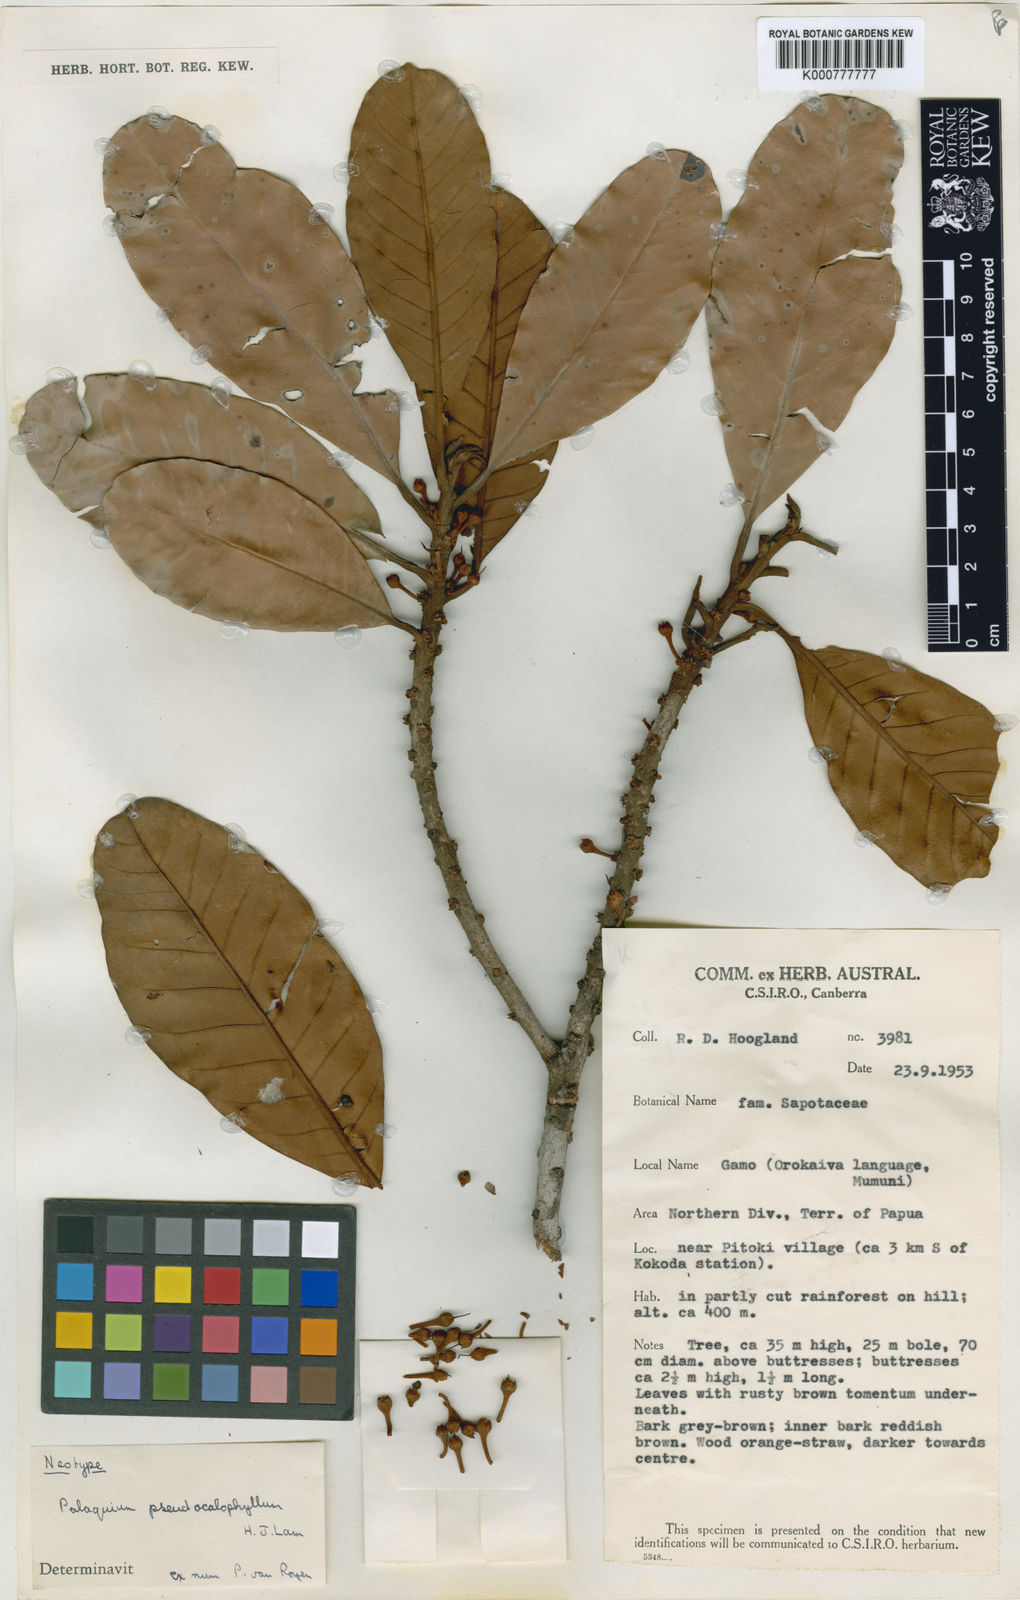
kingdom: Plantae
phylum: Tracheophyta
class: Magnoliopsida
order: Ericales
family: Sapotaceae
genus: Palaquium
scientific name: Palaquium pseudocalophyllum
